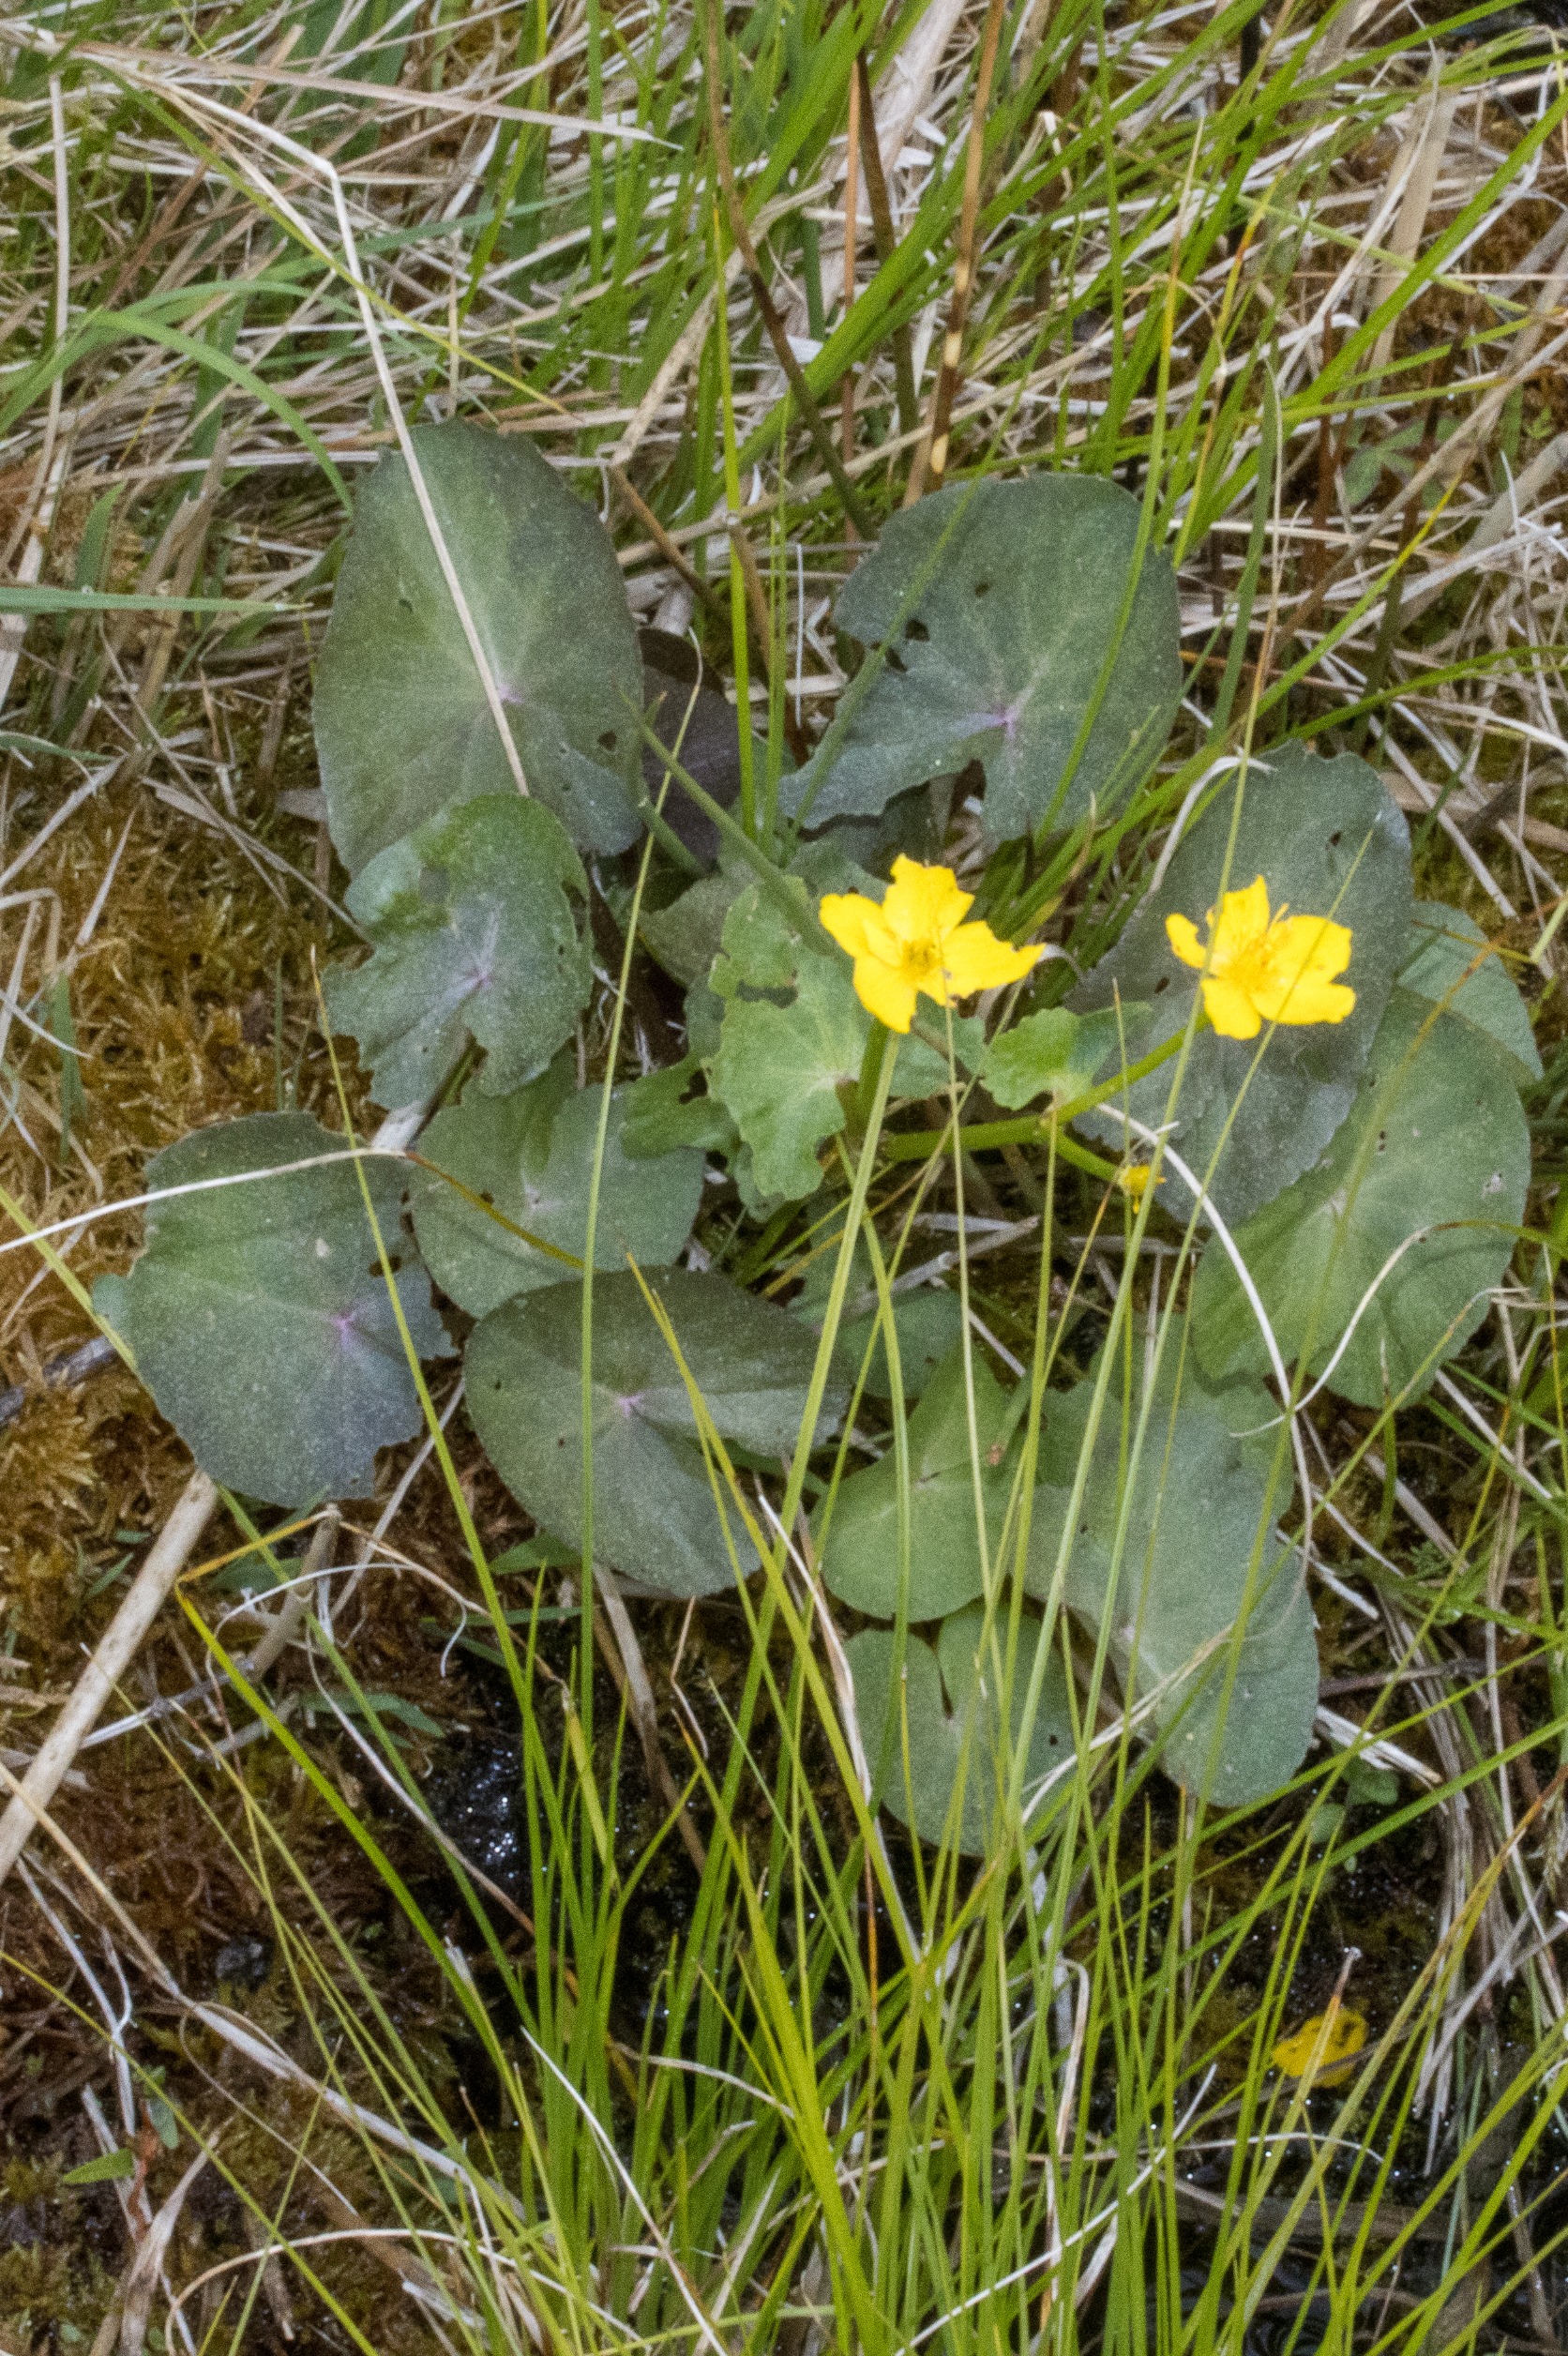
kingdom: Plantae
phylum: Tracheophyta
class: Magnoliopsida
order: Ranunculales
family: Ranunculaceae
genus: Caltha
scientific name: Caltha palustris
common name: Eng-kabbeleje
